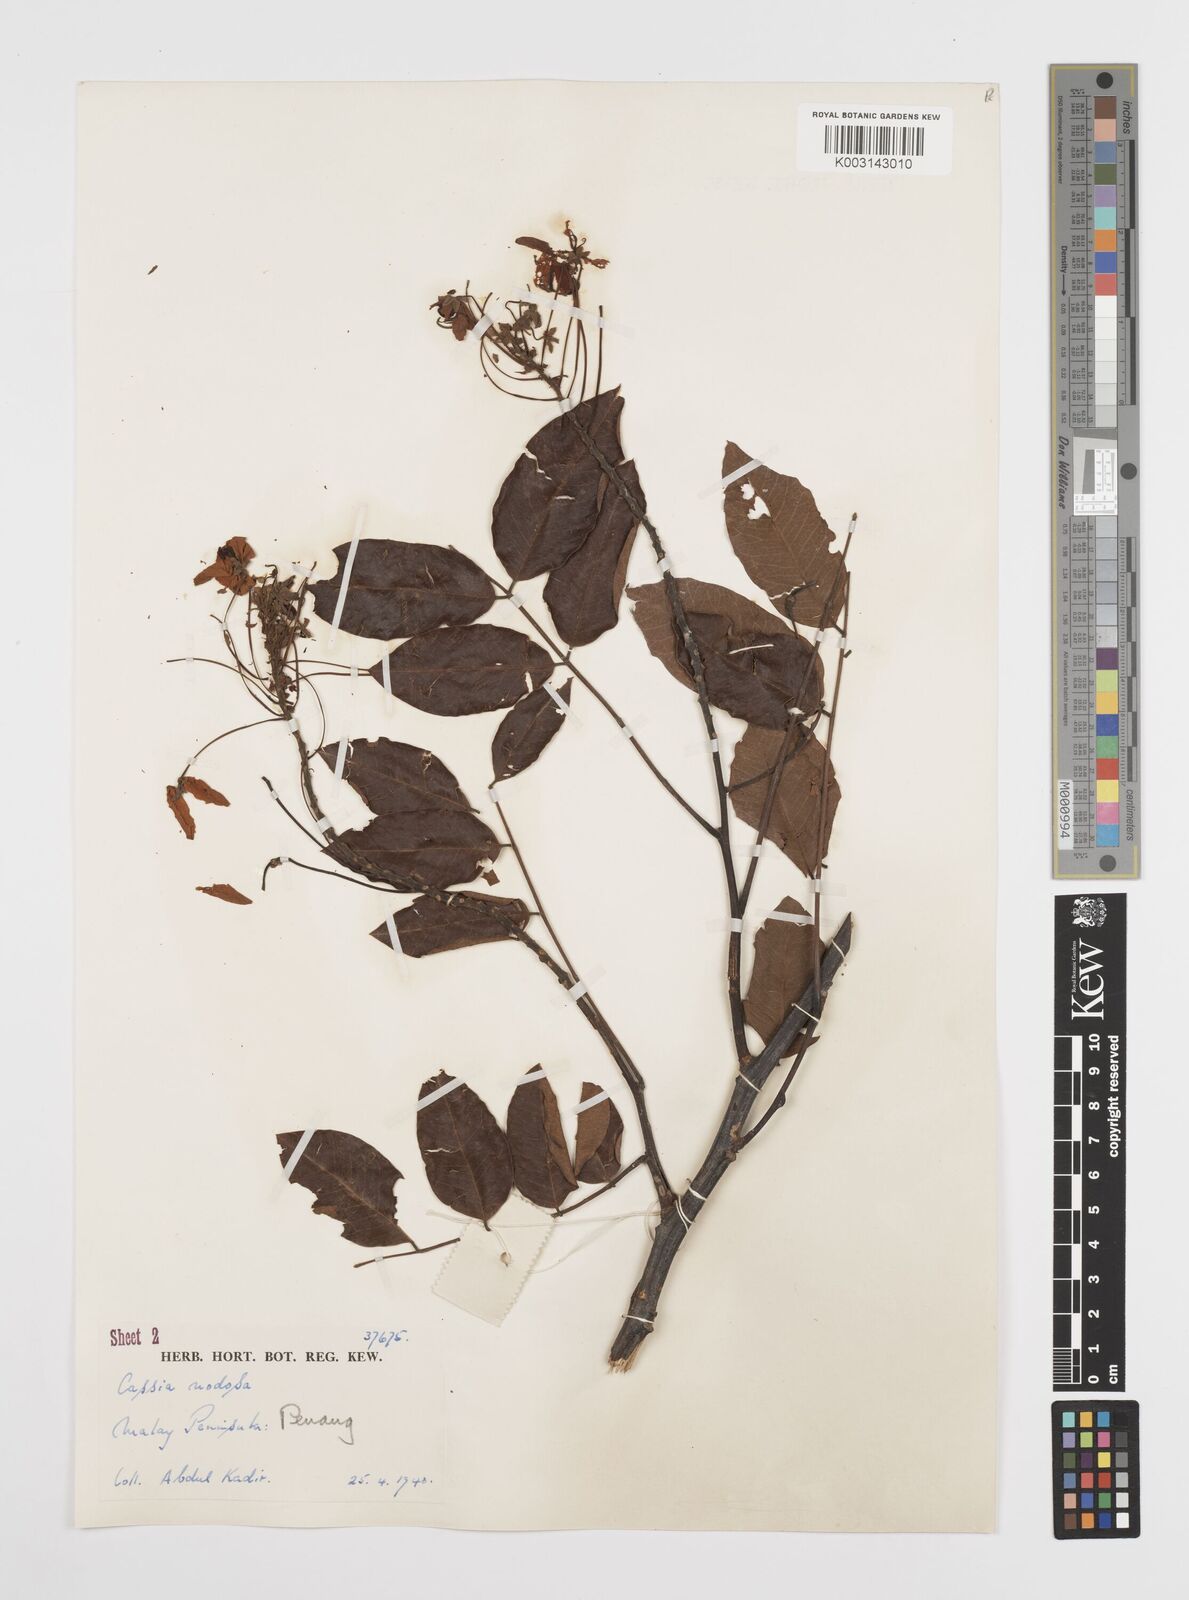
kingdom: Plantae
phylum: Tracheophyta
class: Magnoliopsida
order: Fabales
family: Fabaceae
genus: Cassia
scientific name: Cassia javanica
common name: Apple blossom
